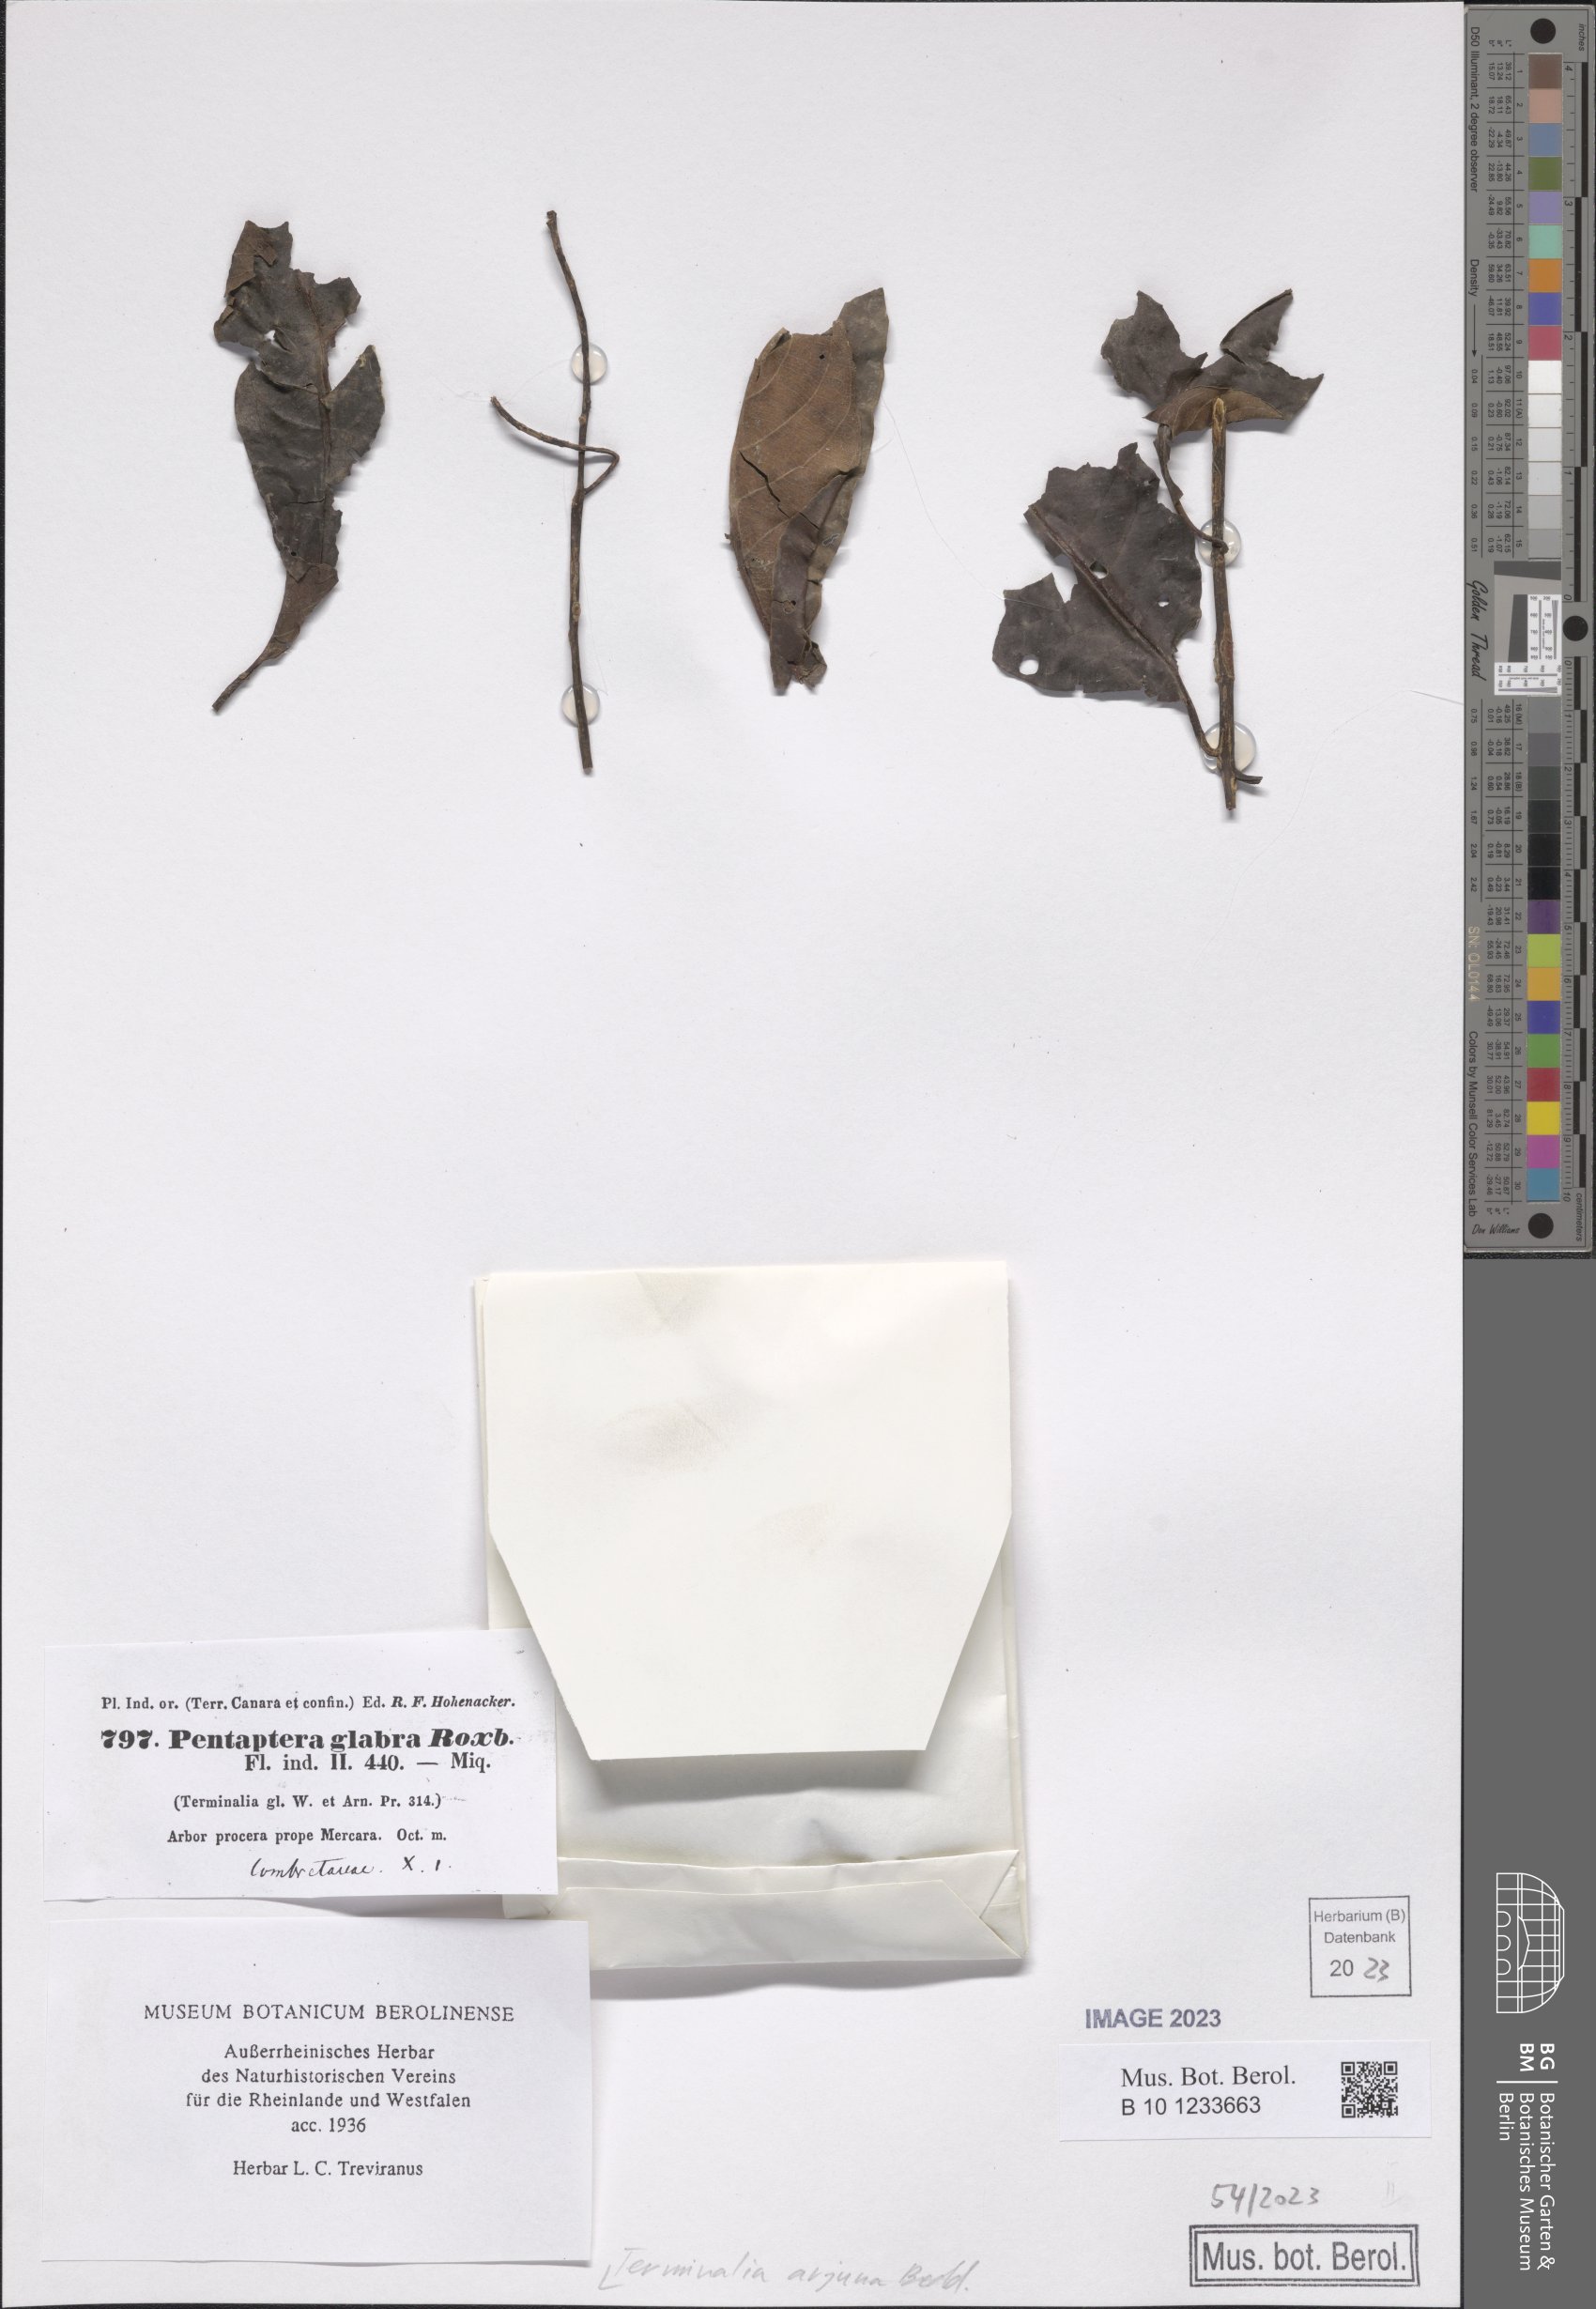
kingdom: Plantae
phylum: Tracheophyta
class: Magnoliopsida
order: Myrtales
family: Combretaceae
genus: Terminalia
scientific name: Terminalia arjuna
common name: Arjun
